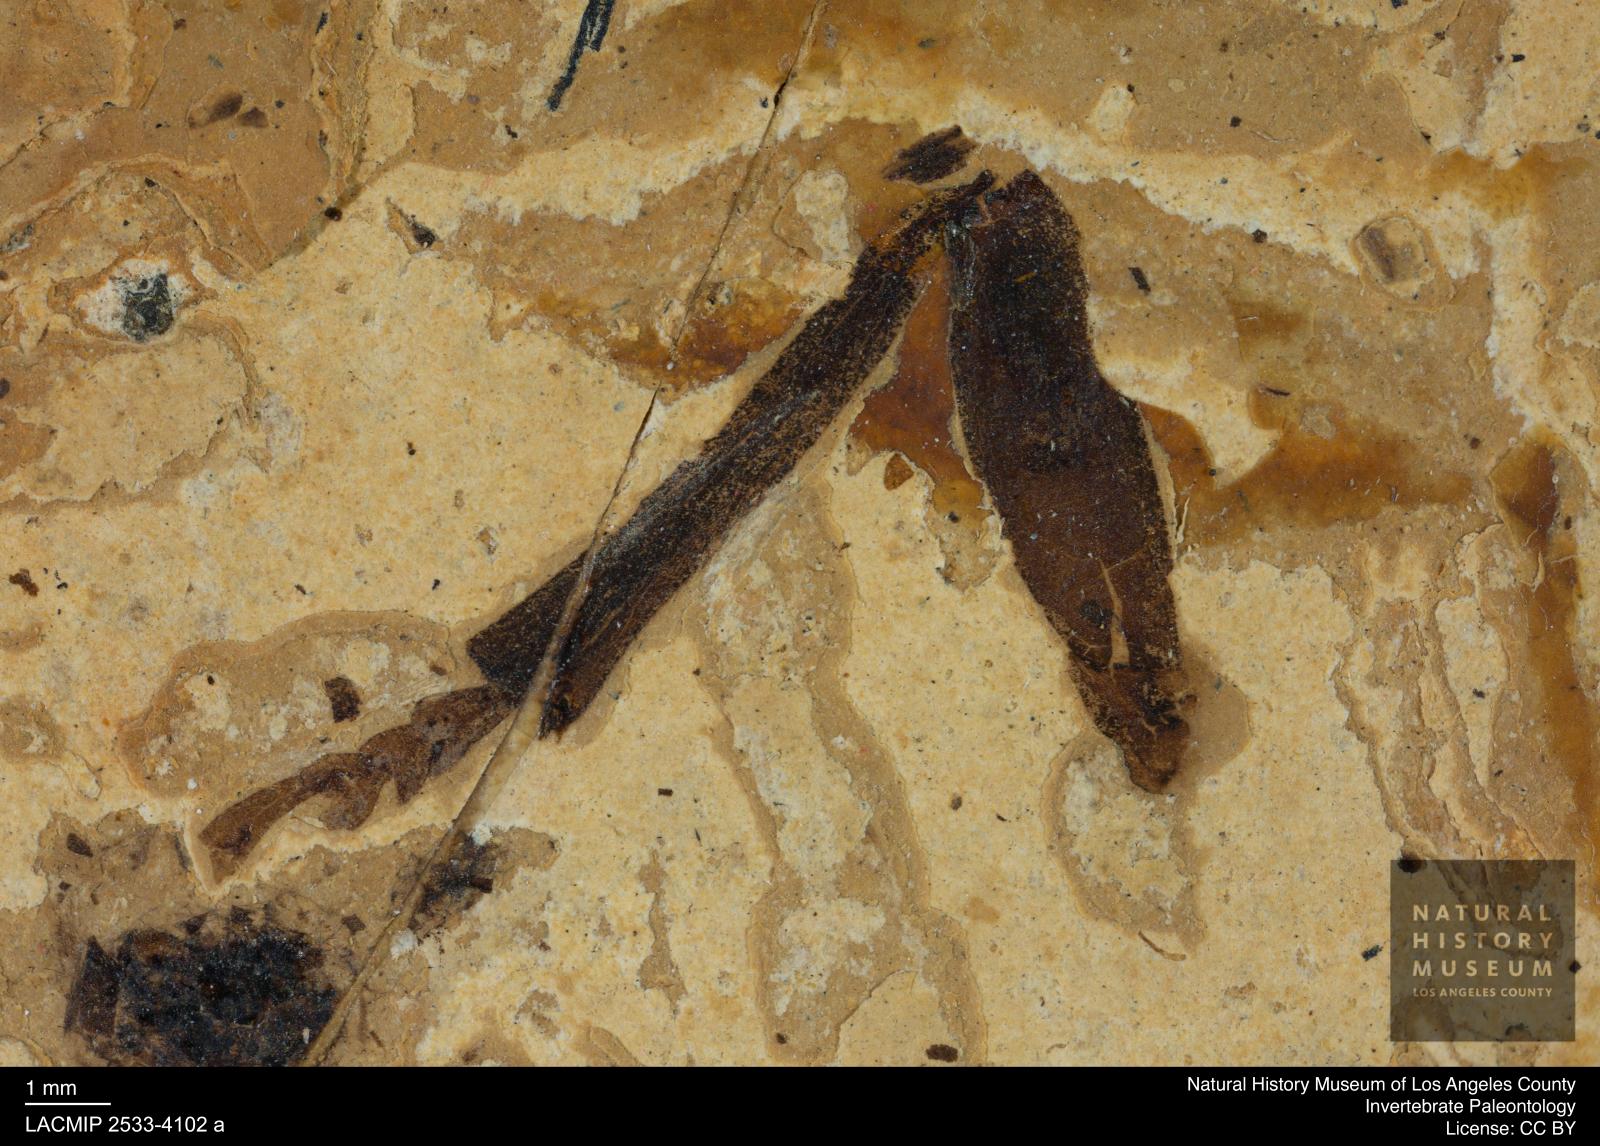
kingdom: Animalia
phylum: Arthropoda
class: Insecta
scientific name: Insecta
